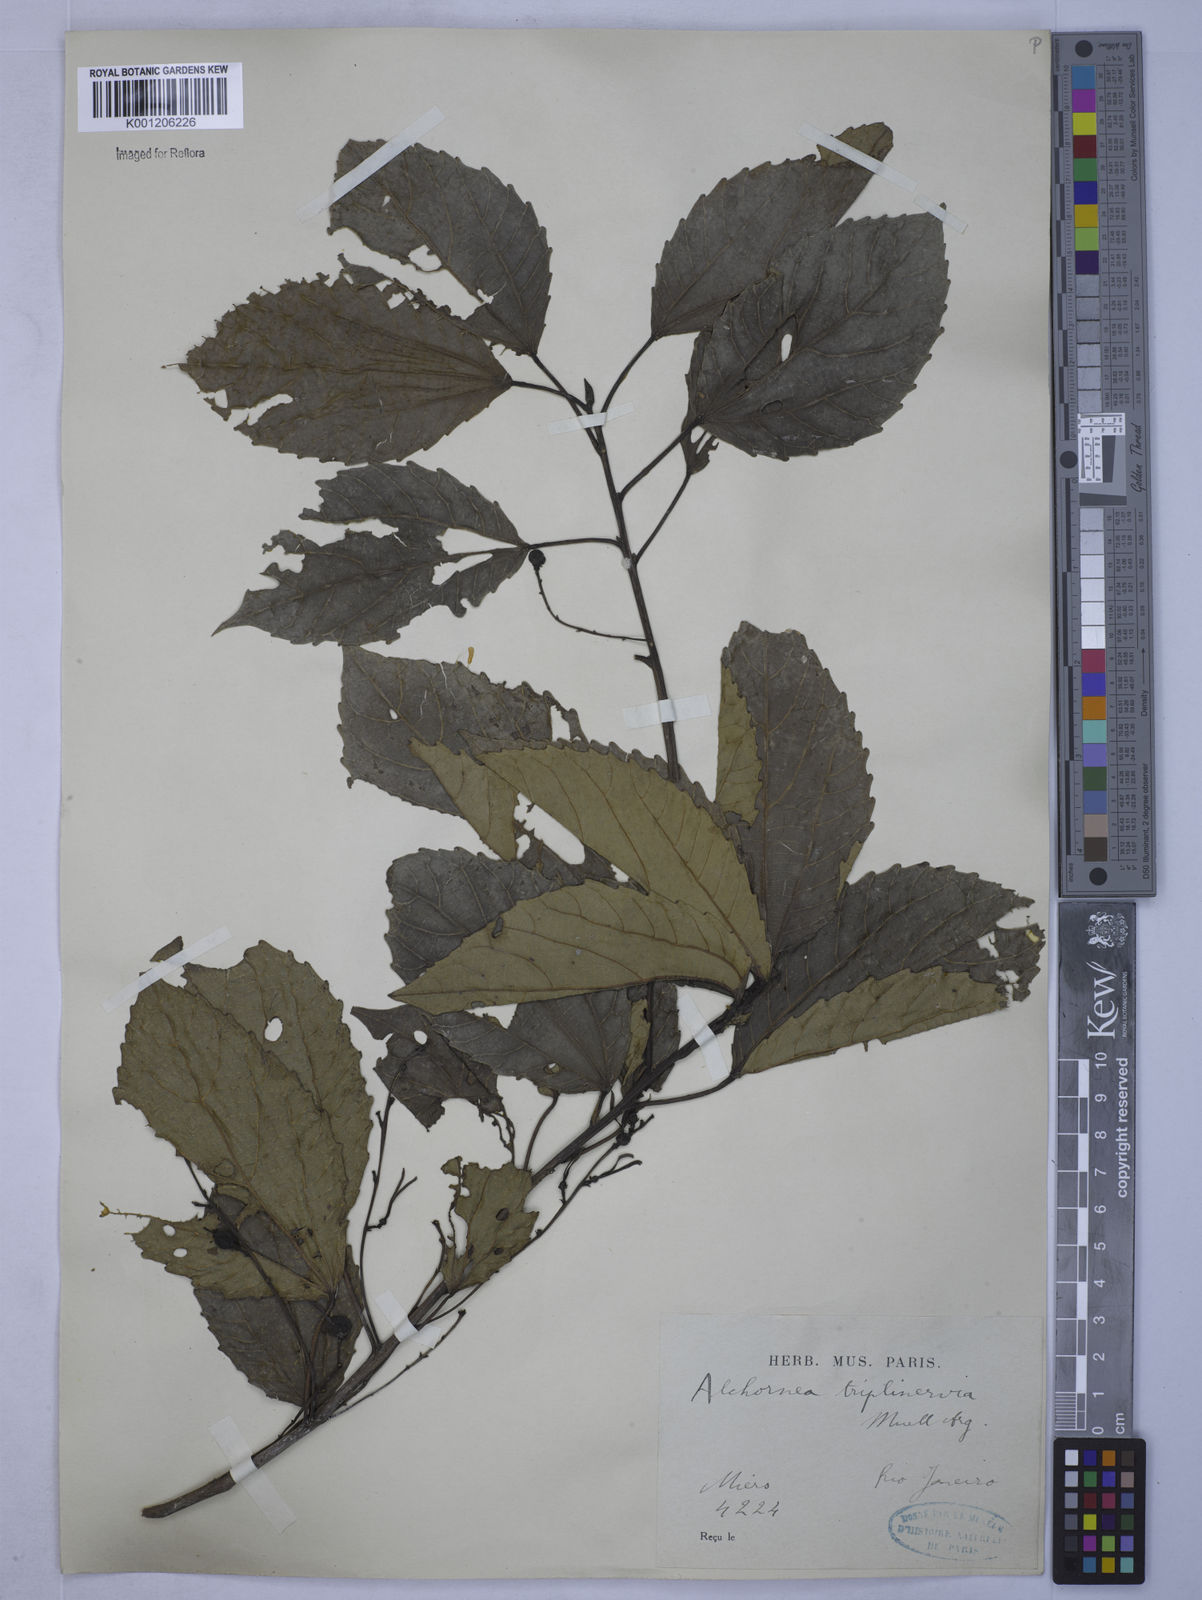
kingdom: Plantae
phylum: Tracheophyta
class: Magnoliopsida
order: Malpighiales
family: Euphorbiaceae
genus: Alchornea
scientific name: Alchornea
